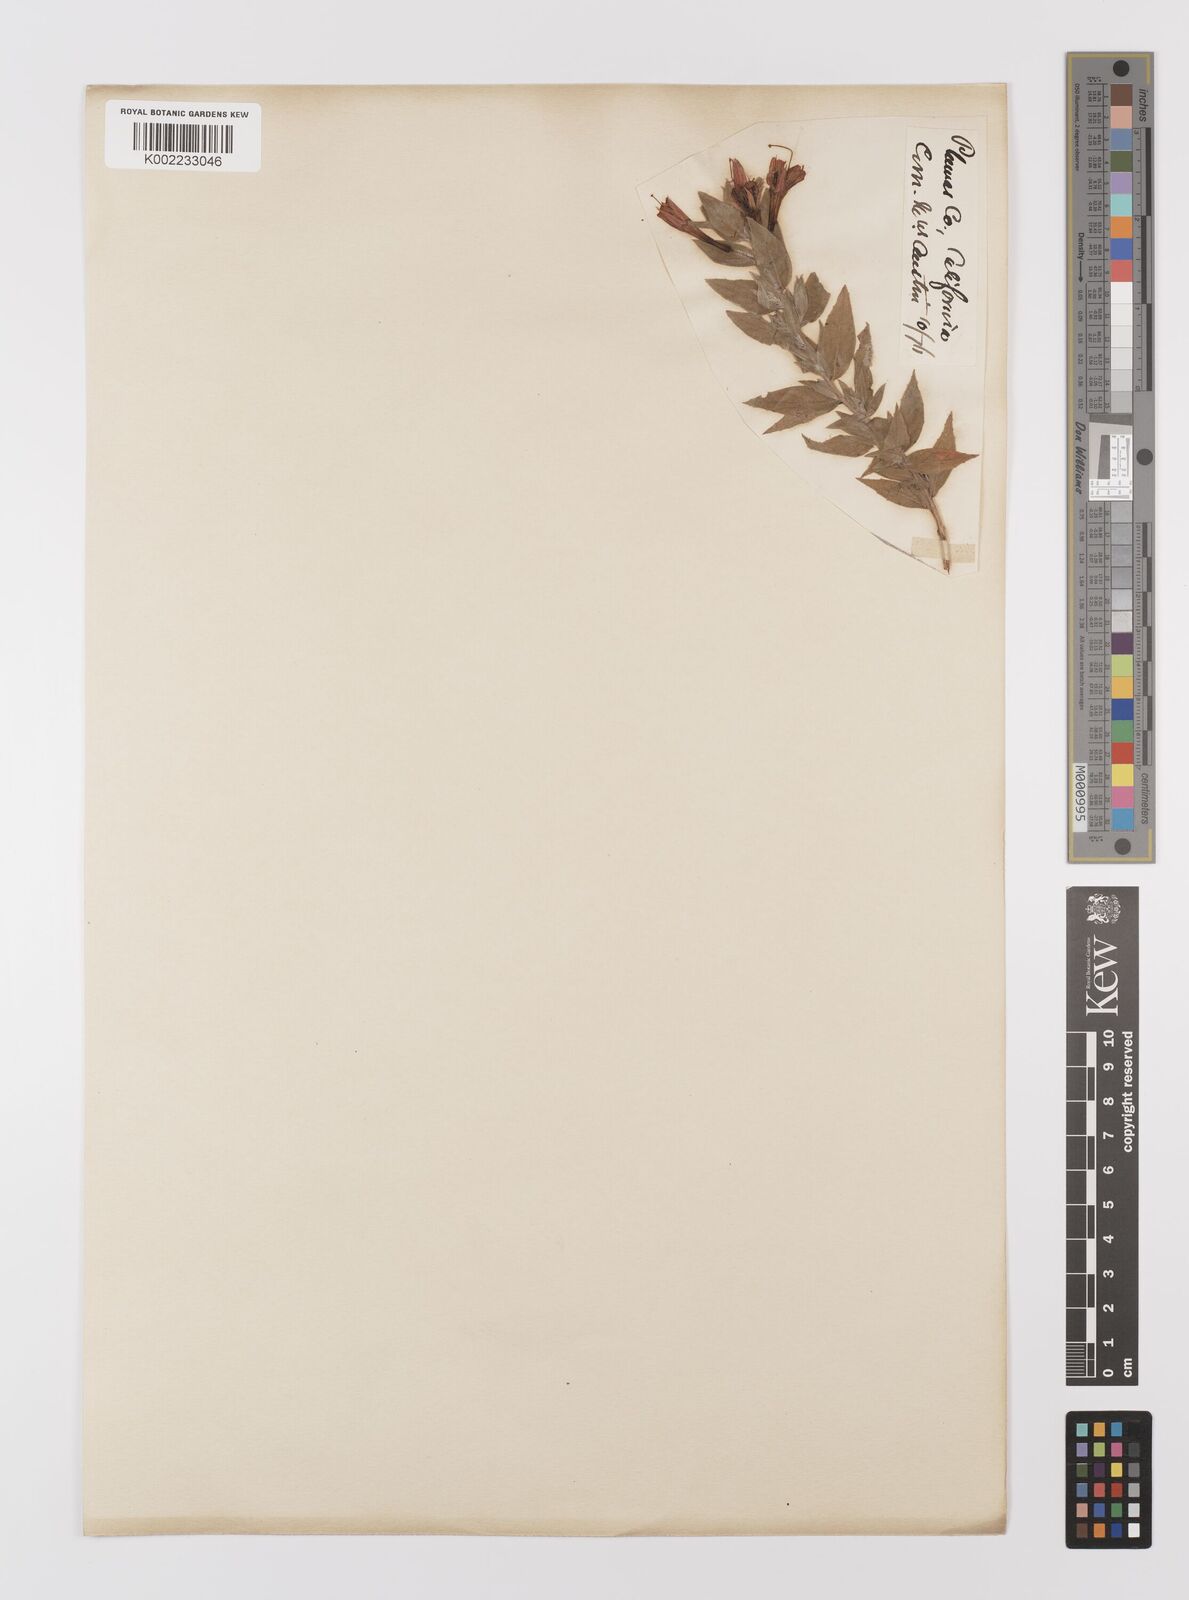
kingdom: Plantae
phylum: Tracheophyta
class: Magnoliopsida
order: Myrtales
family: Onagraceae
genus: Epilobium
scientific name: Epilobium
